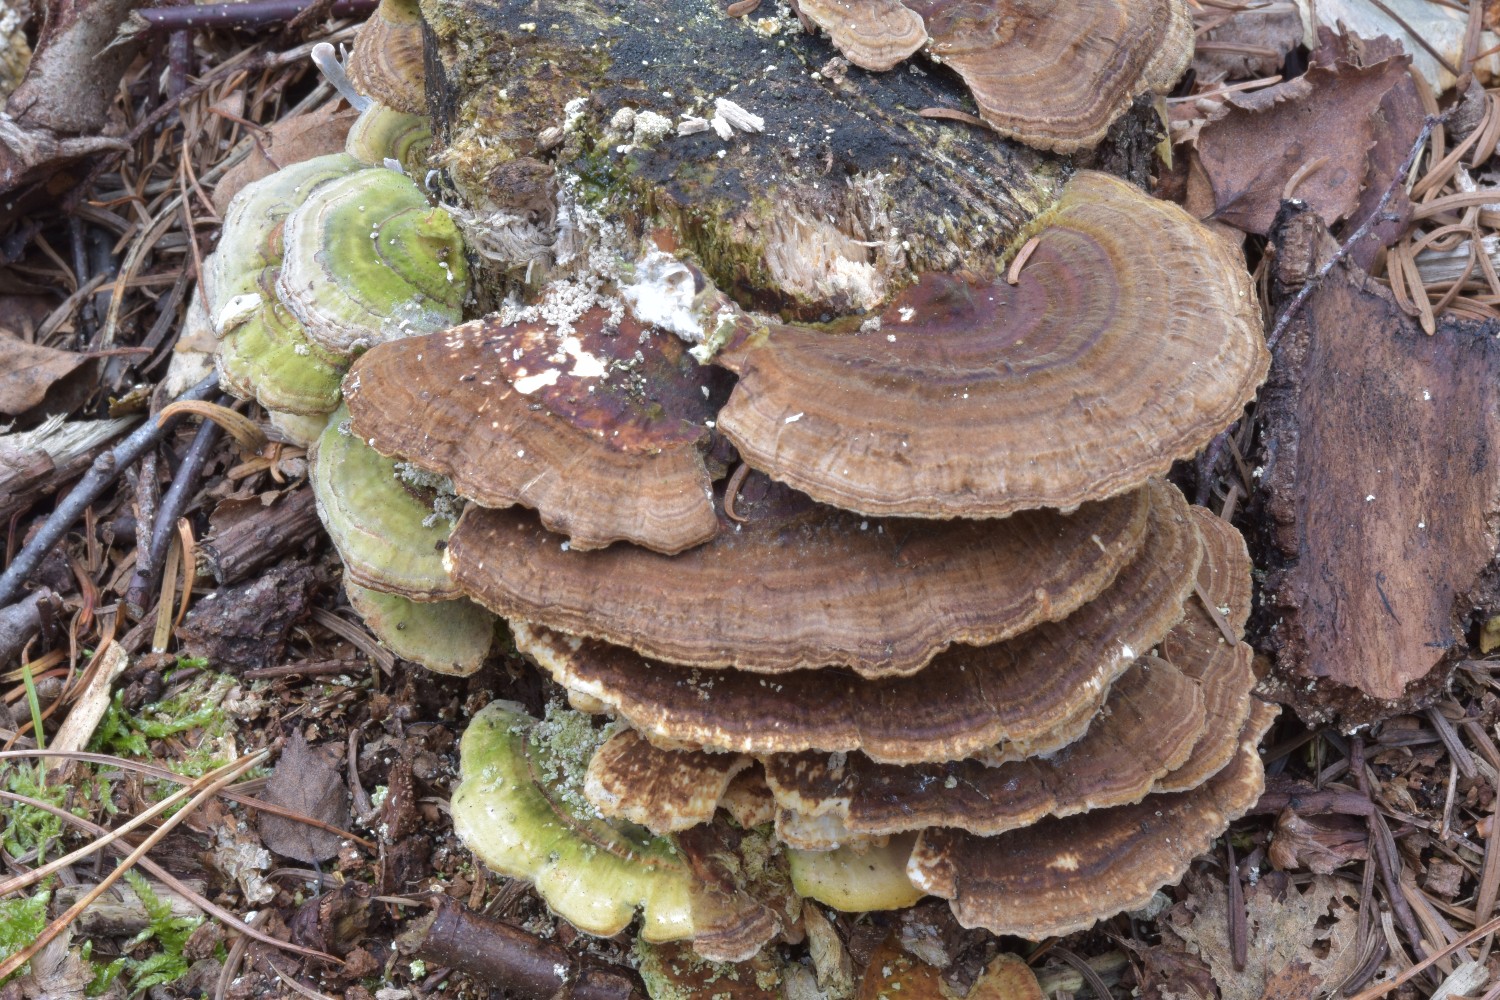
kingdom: Fungi
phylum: Basidiomycota
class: Agaricomycetes
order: Polyporales
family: Polyporaceae
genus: Trametes
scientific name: Trametes ochracea
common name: bæltet læderporesvamp
